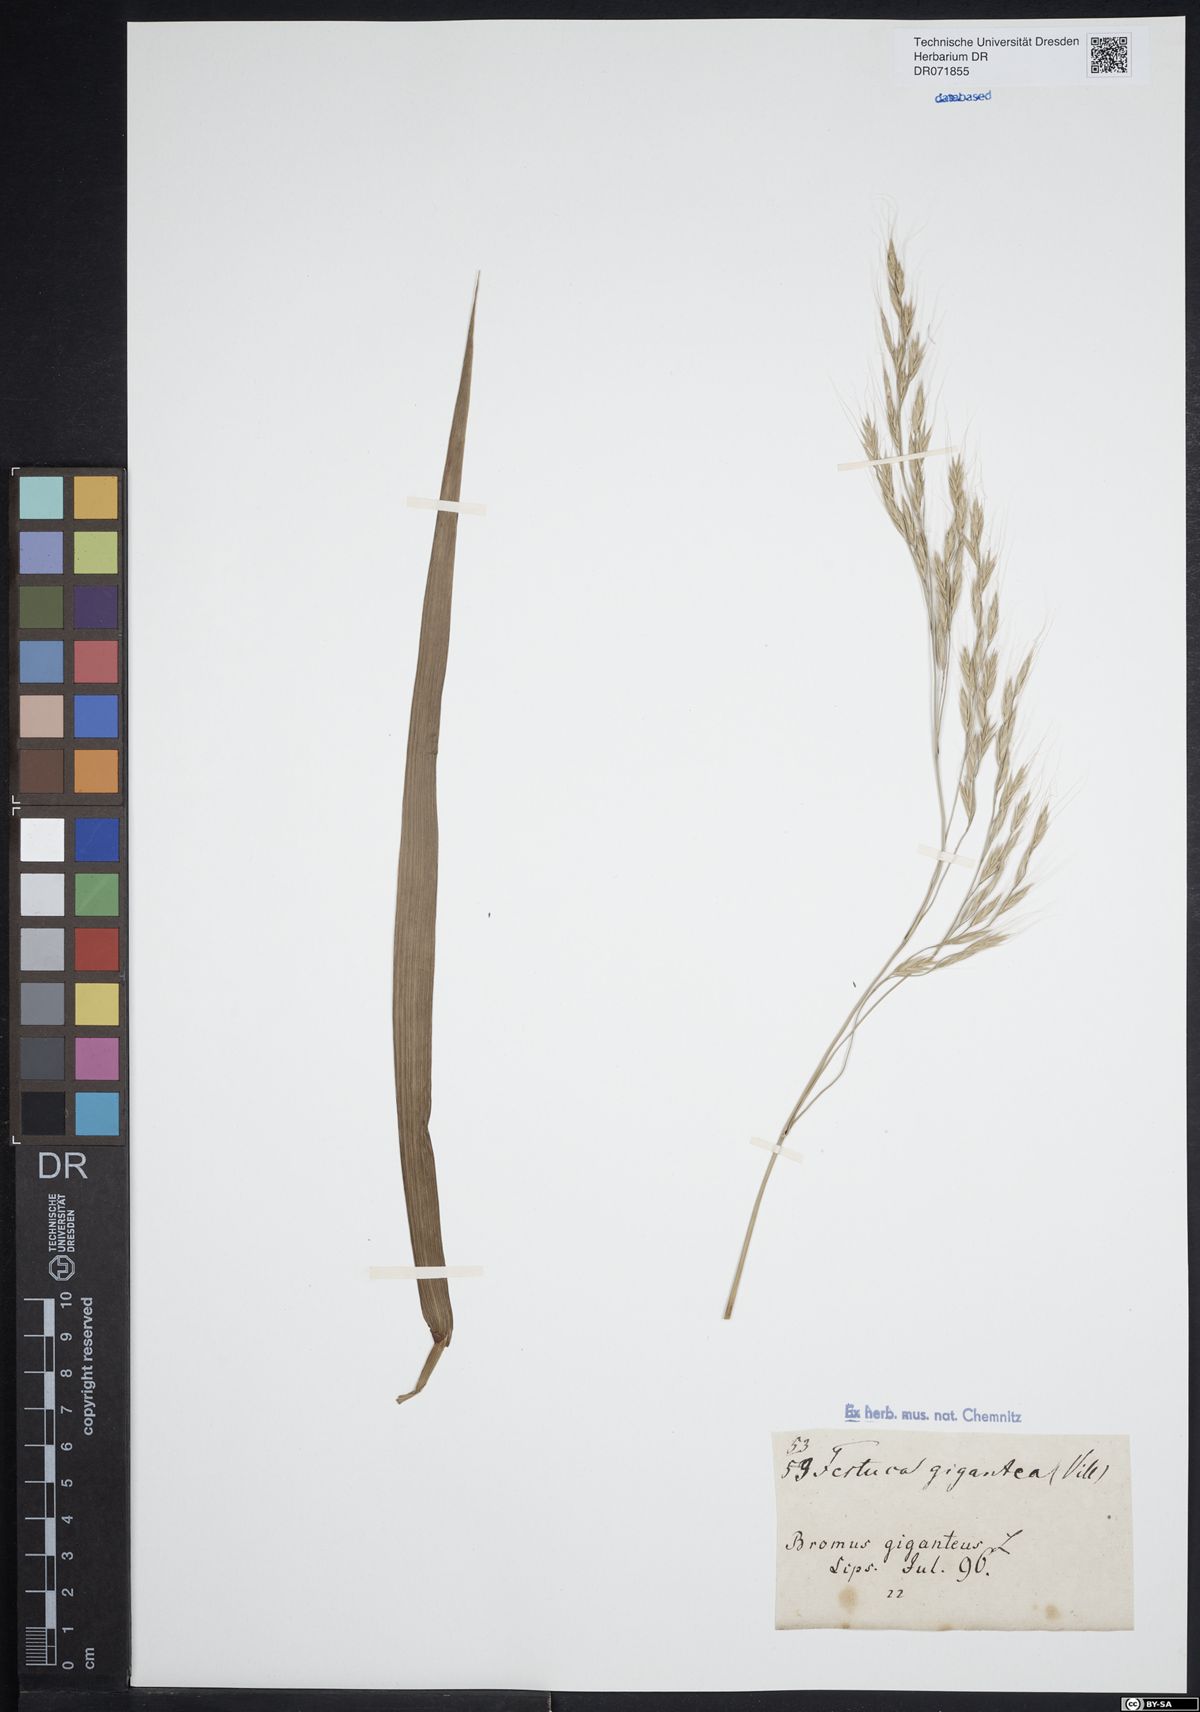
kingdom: Plantae
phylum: Tracheophyta
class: Liliopsida
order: Poales
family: Poaceae
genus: Lolium
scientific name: Lolium giganteum
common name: Giant fescue
